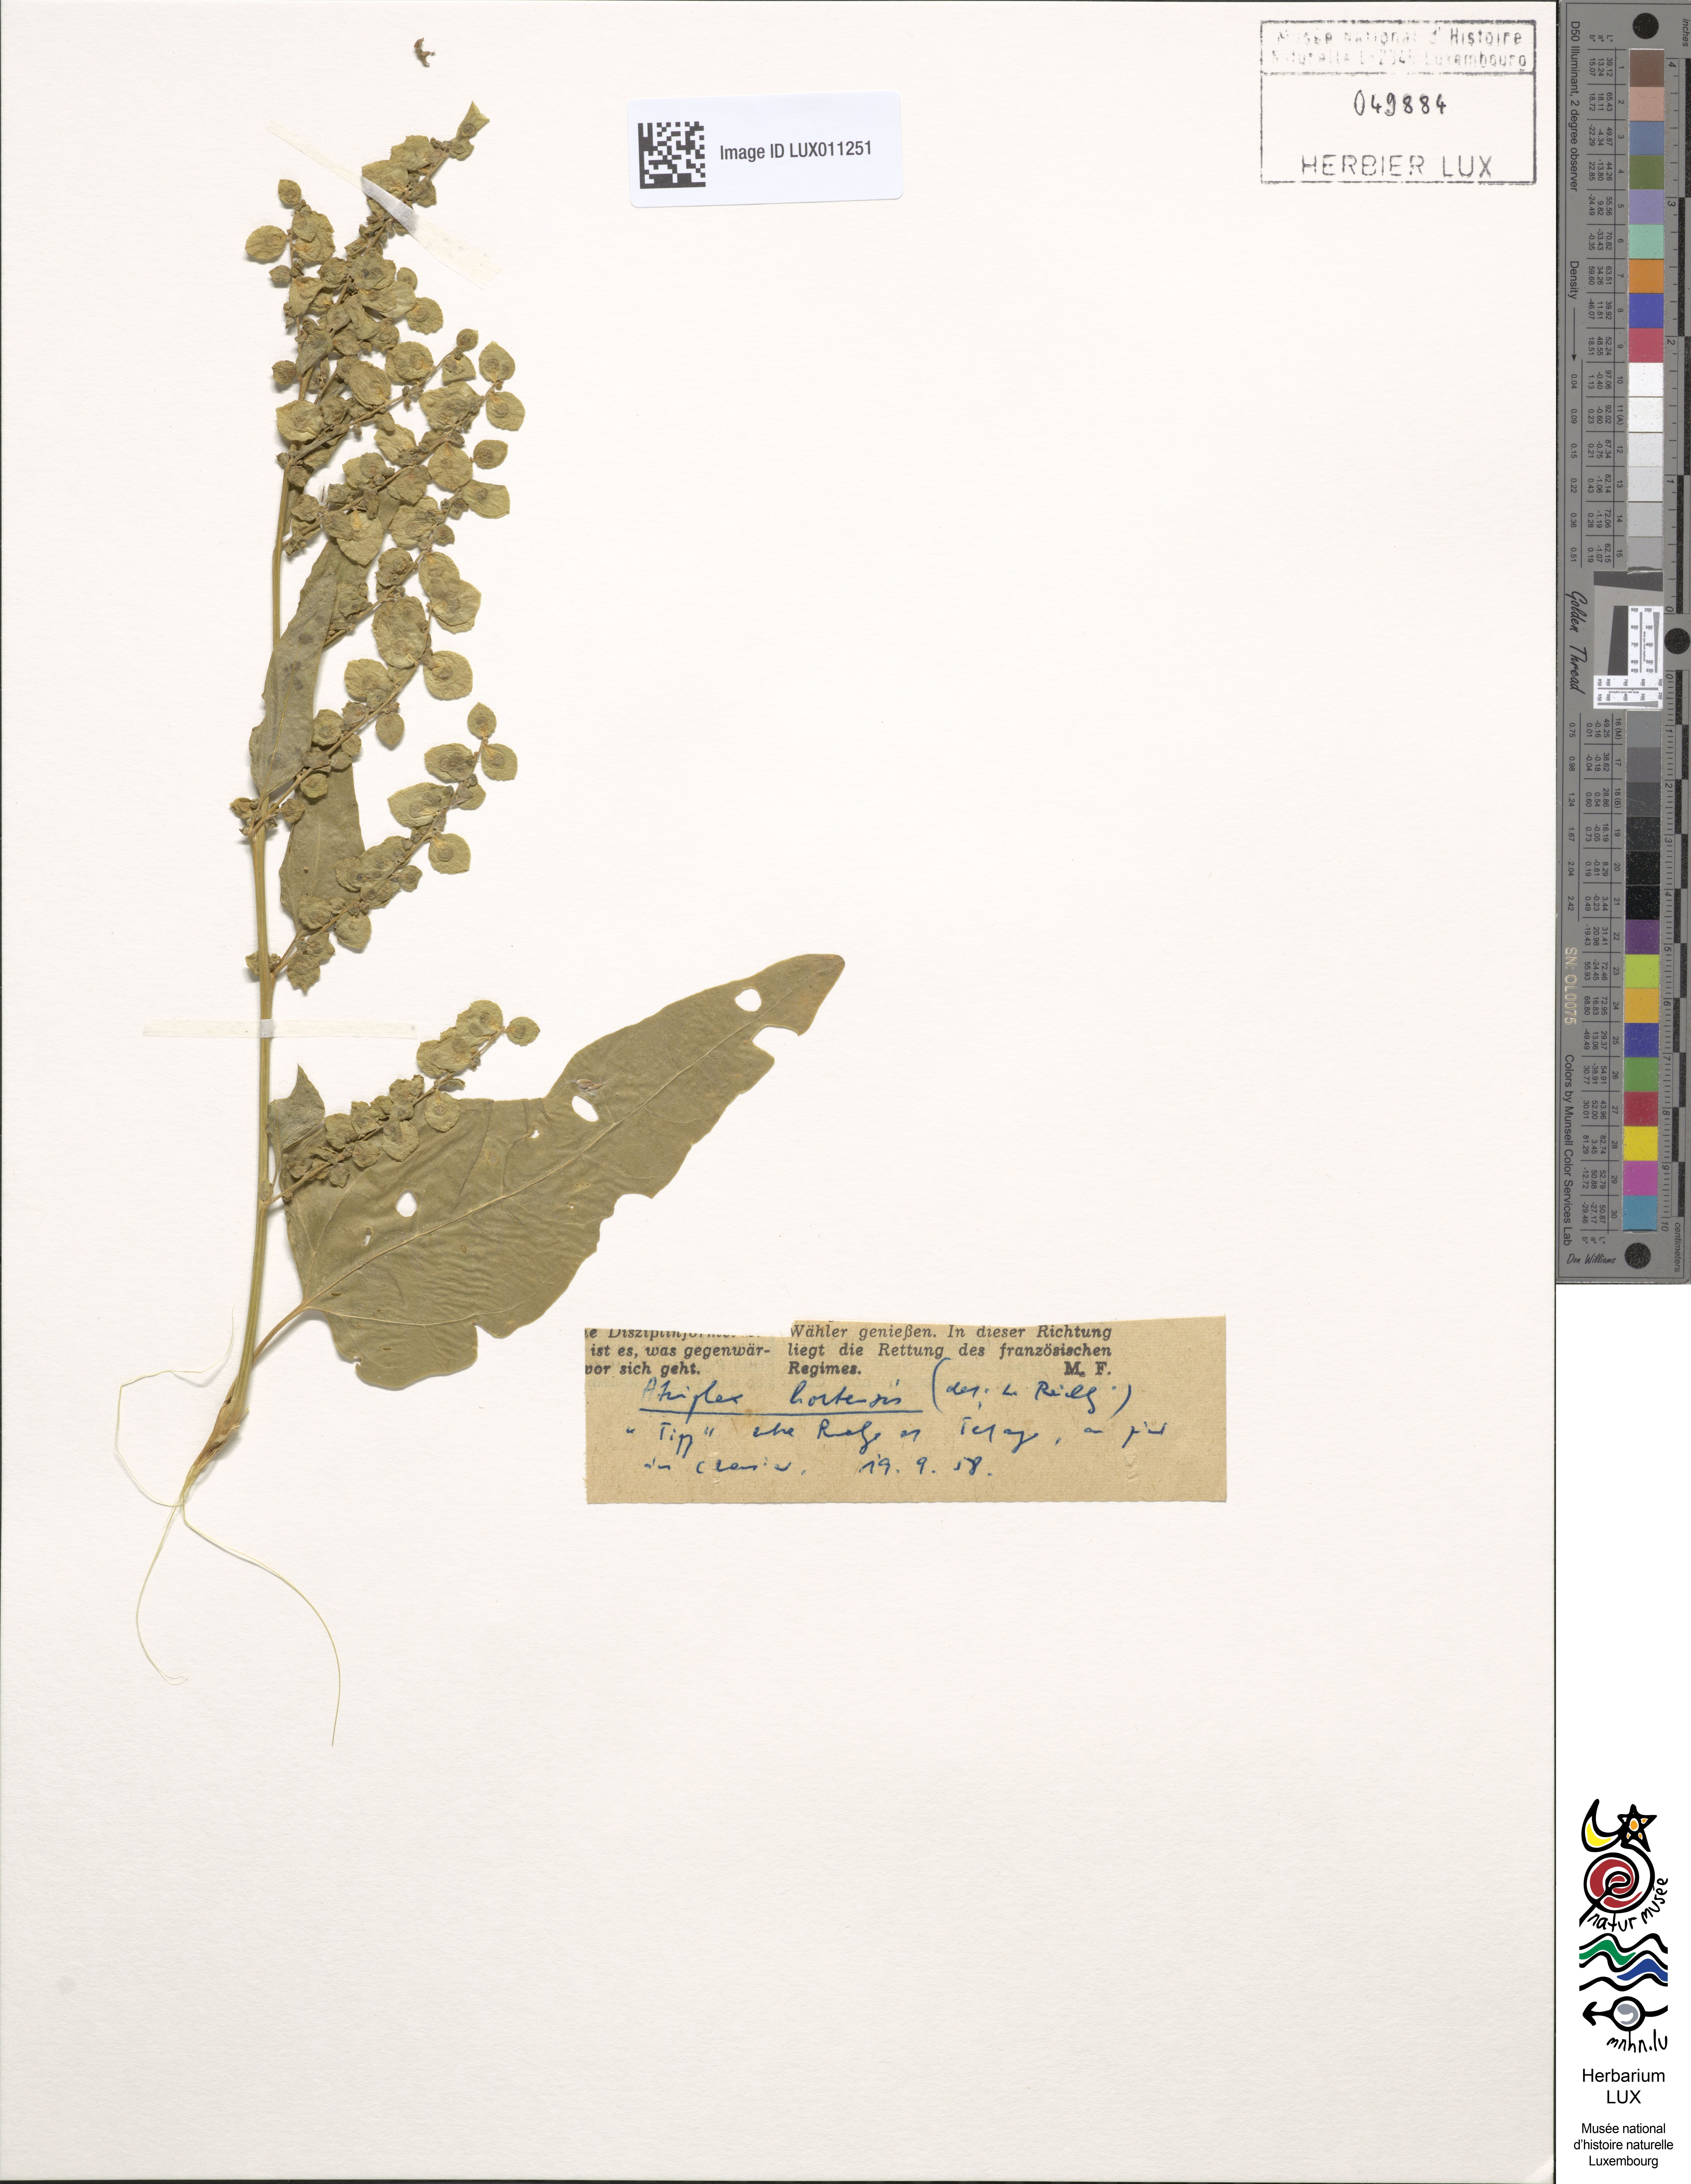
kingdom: Plantae
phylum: Tracheophyta
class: Magnoliopsida
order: Caryophyllales
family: Amaranthaceae
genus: Atriplex
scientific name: Atriplex hortensis
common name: Garden orache
